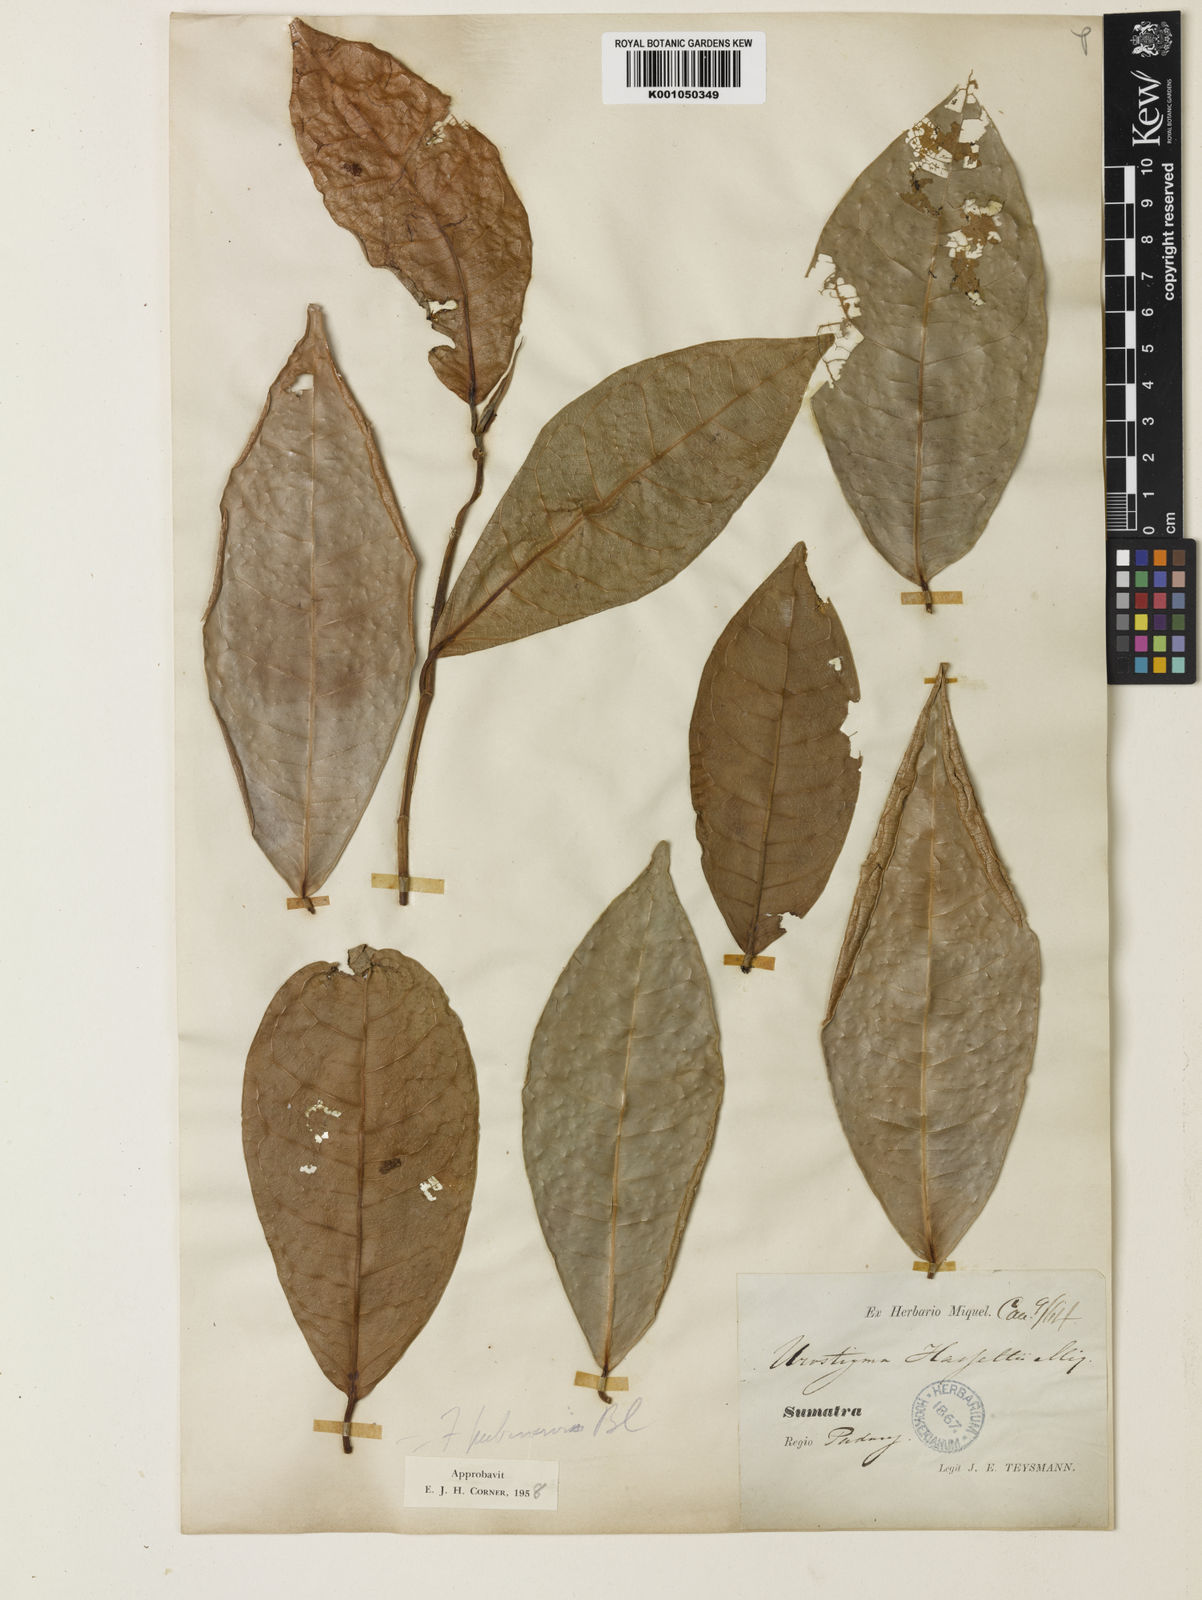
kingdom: Plantae
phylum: Tracheophyta
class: Magnoliopsida
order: Rosales
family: Moraceae
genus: Ficus
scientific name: Ficus nervosa
